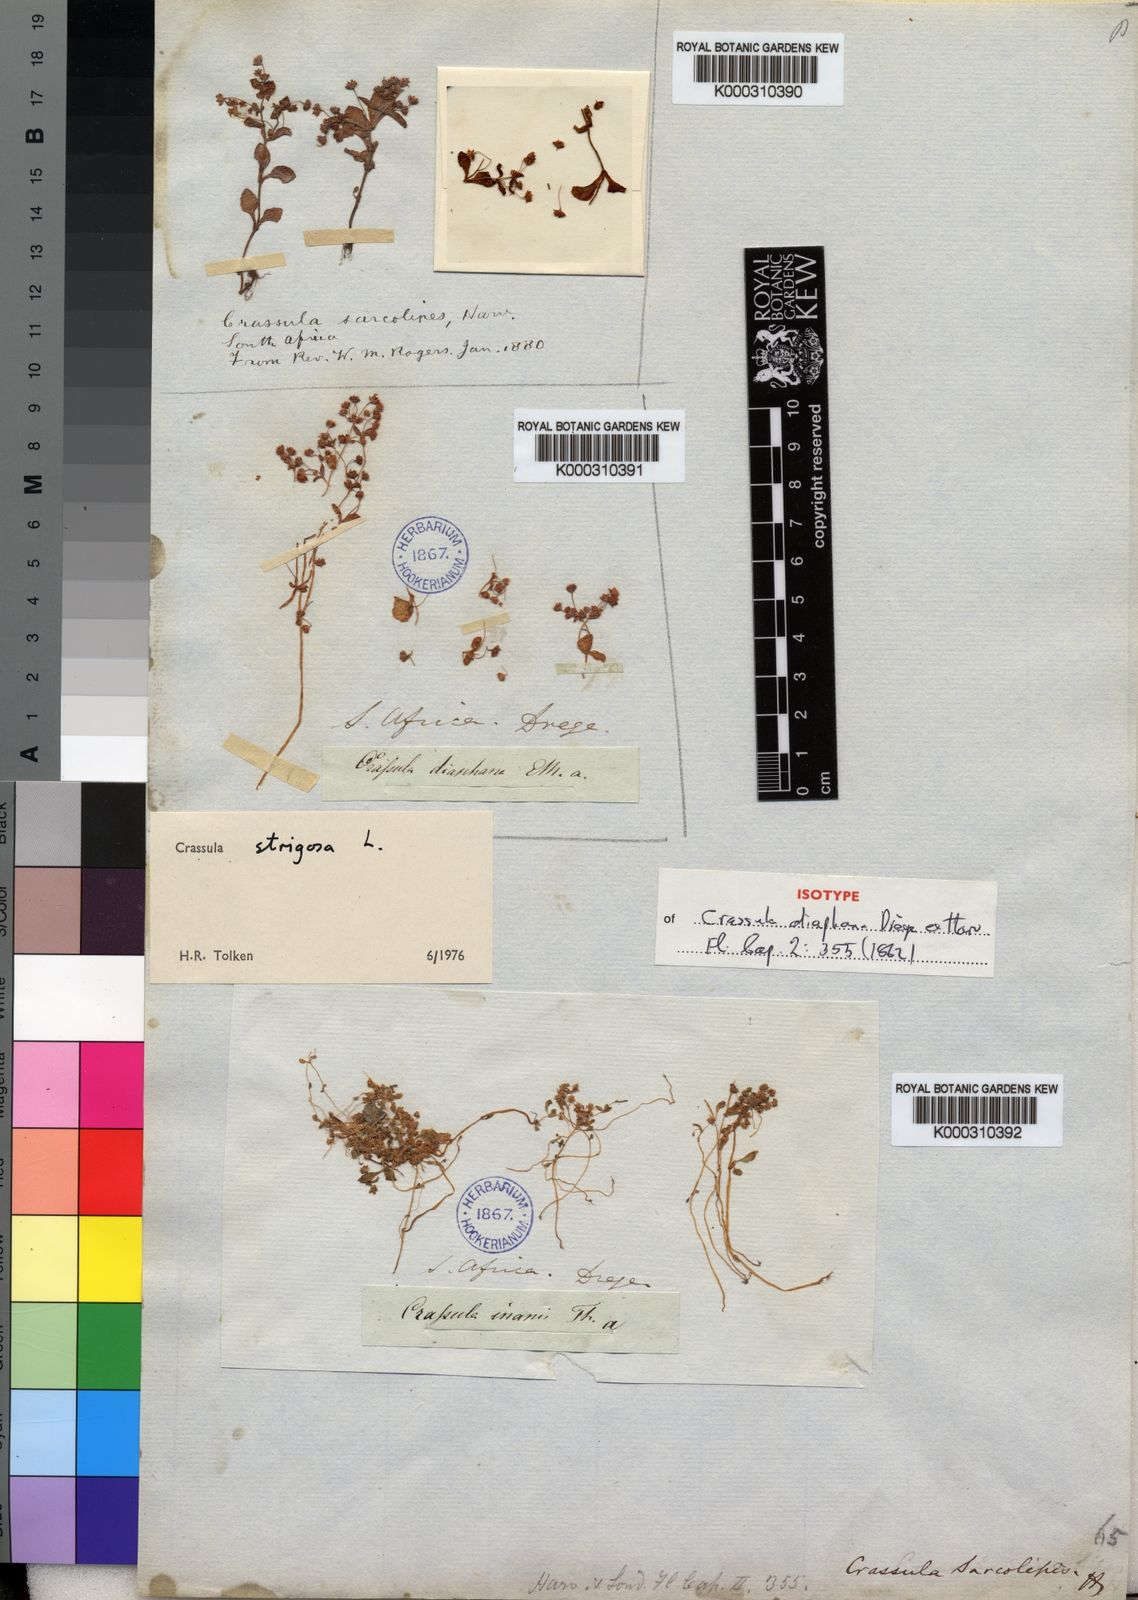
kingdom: Plantae
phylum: Tracheophyta
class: Magnoliopsida
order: Saxifragales
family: Crassulaceae
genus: Crassula
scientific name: Crassula strigosa
